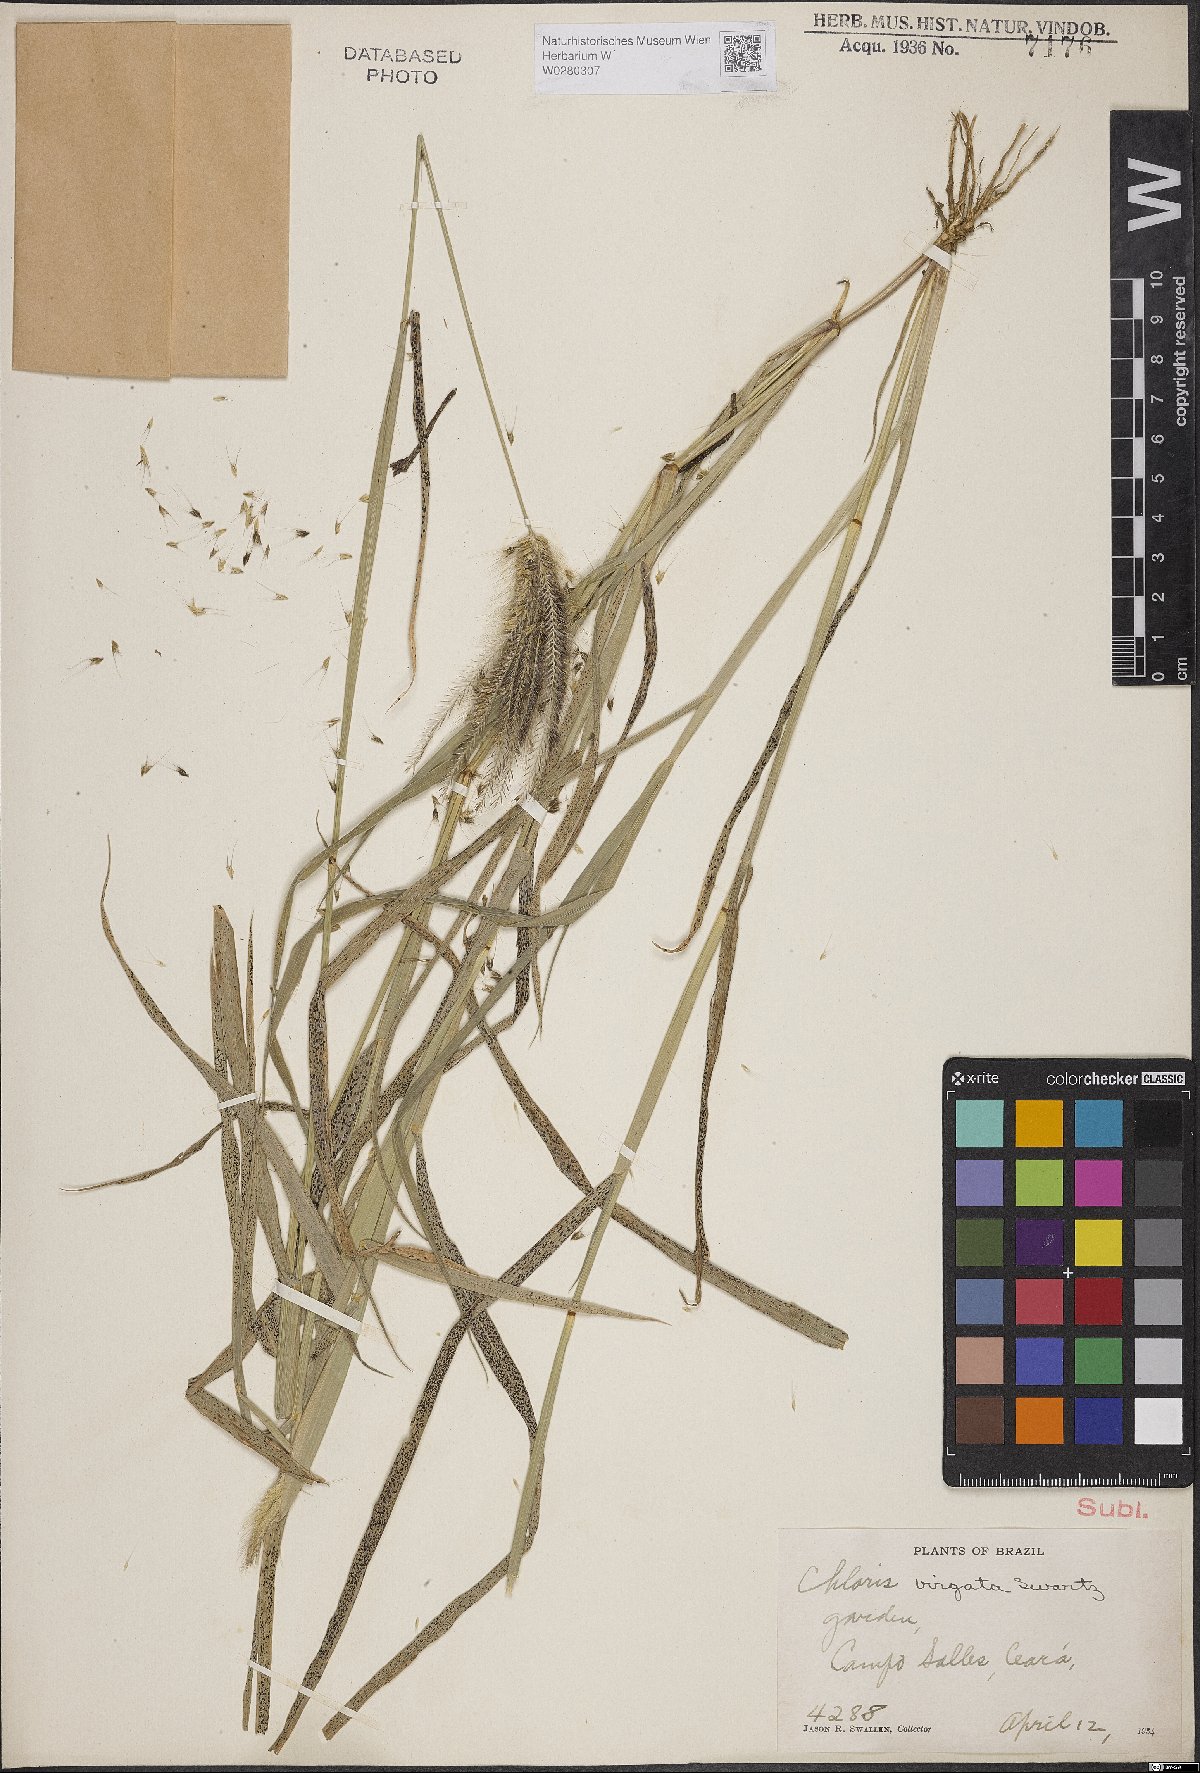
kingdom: Plantae
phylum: Tracheophyta
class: Liliopsida
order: Poales
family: Poaceae
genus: Chloris
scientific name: Chloris virgata
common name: Feathery rhodes-grass
